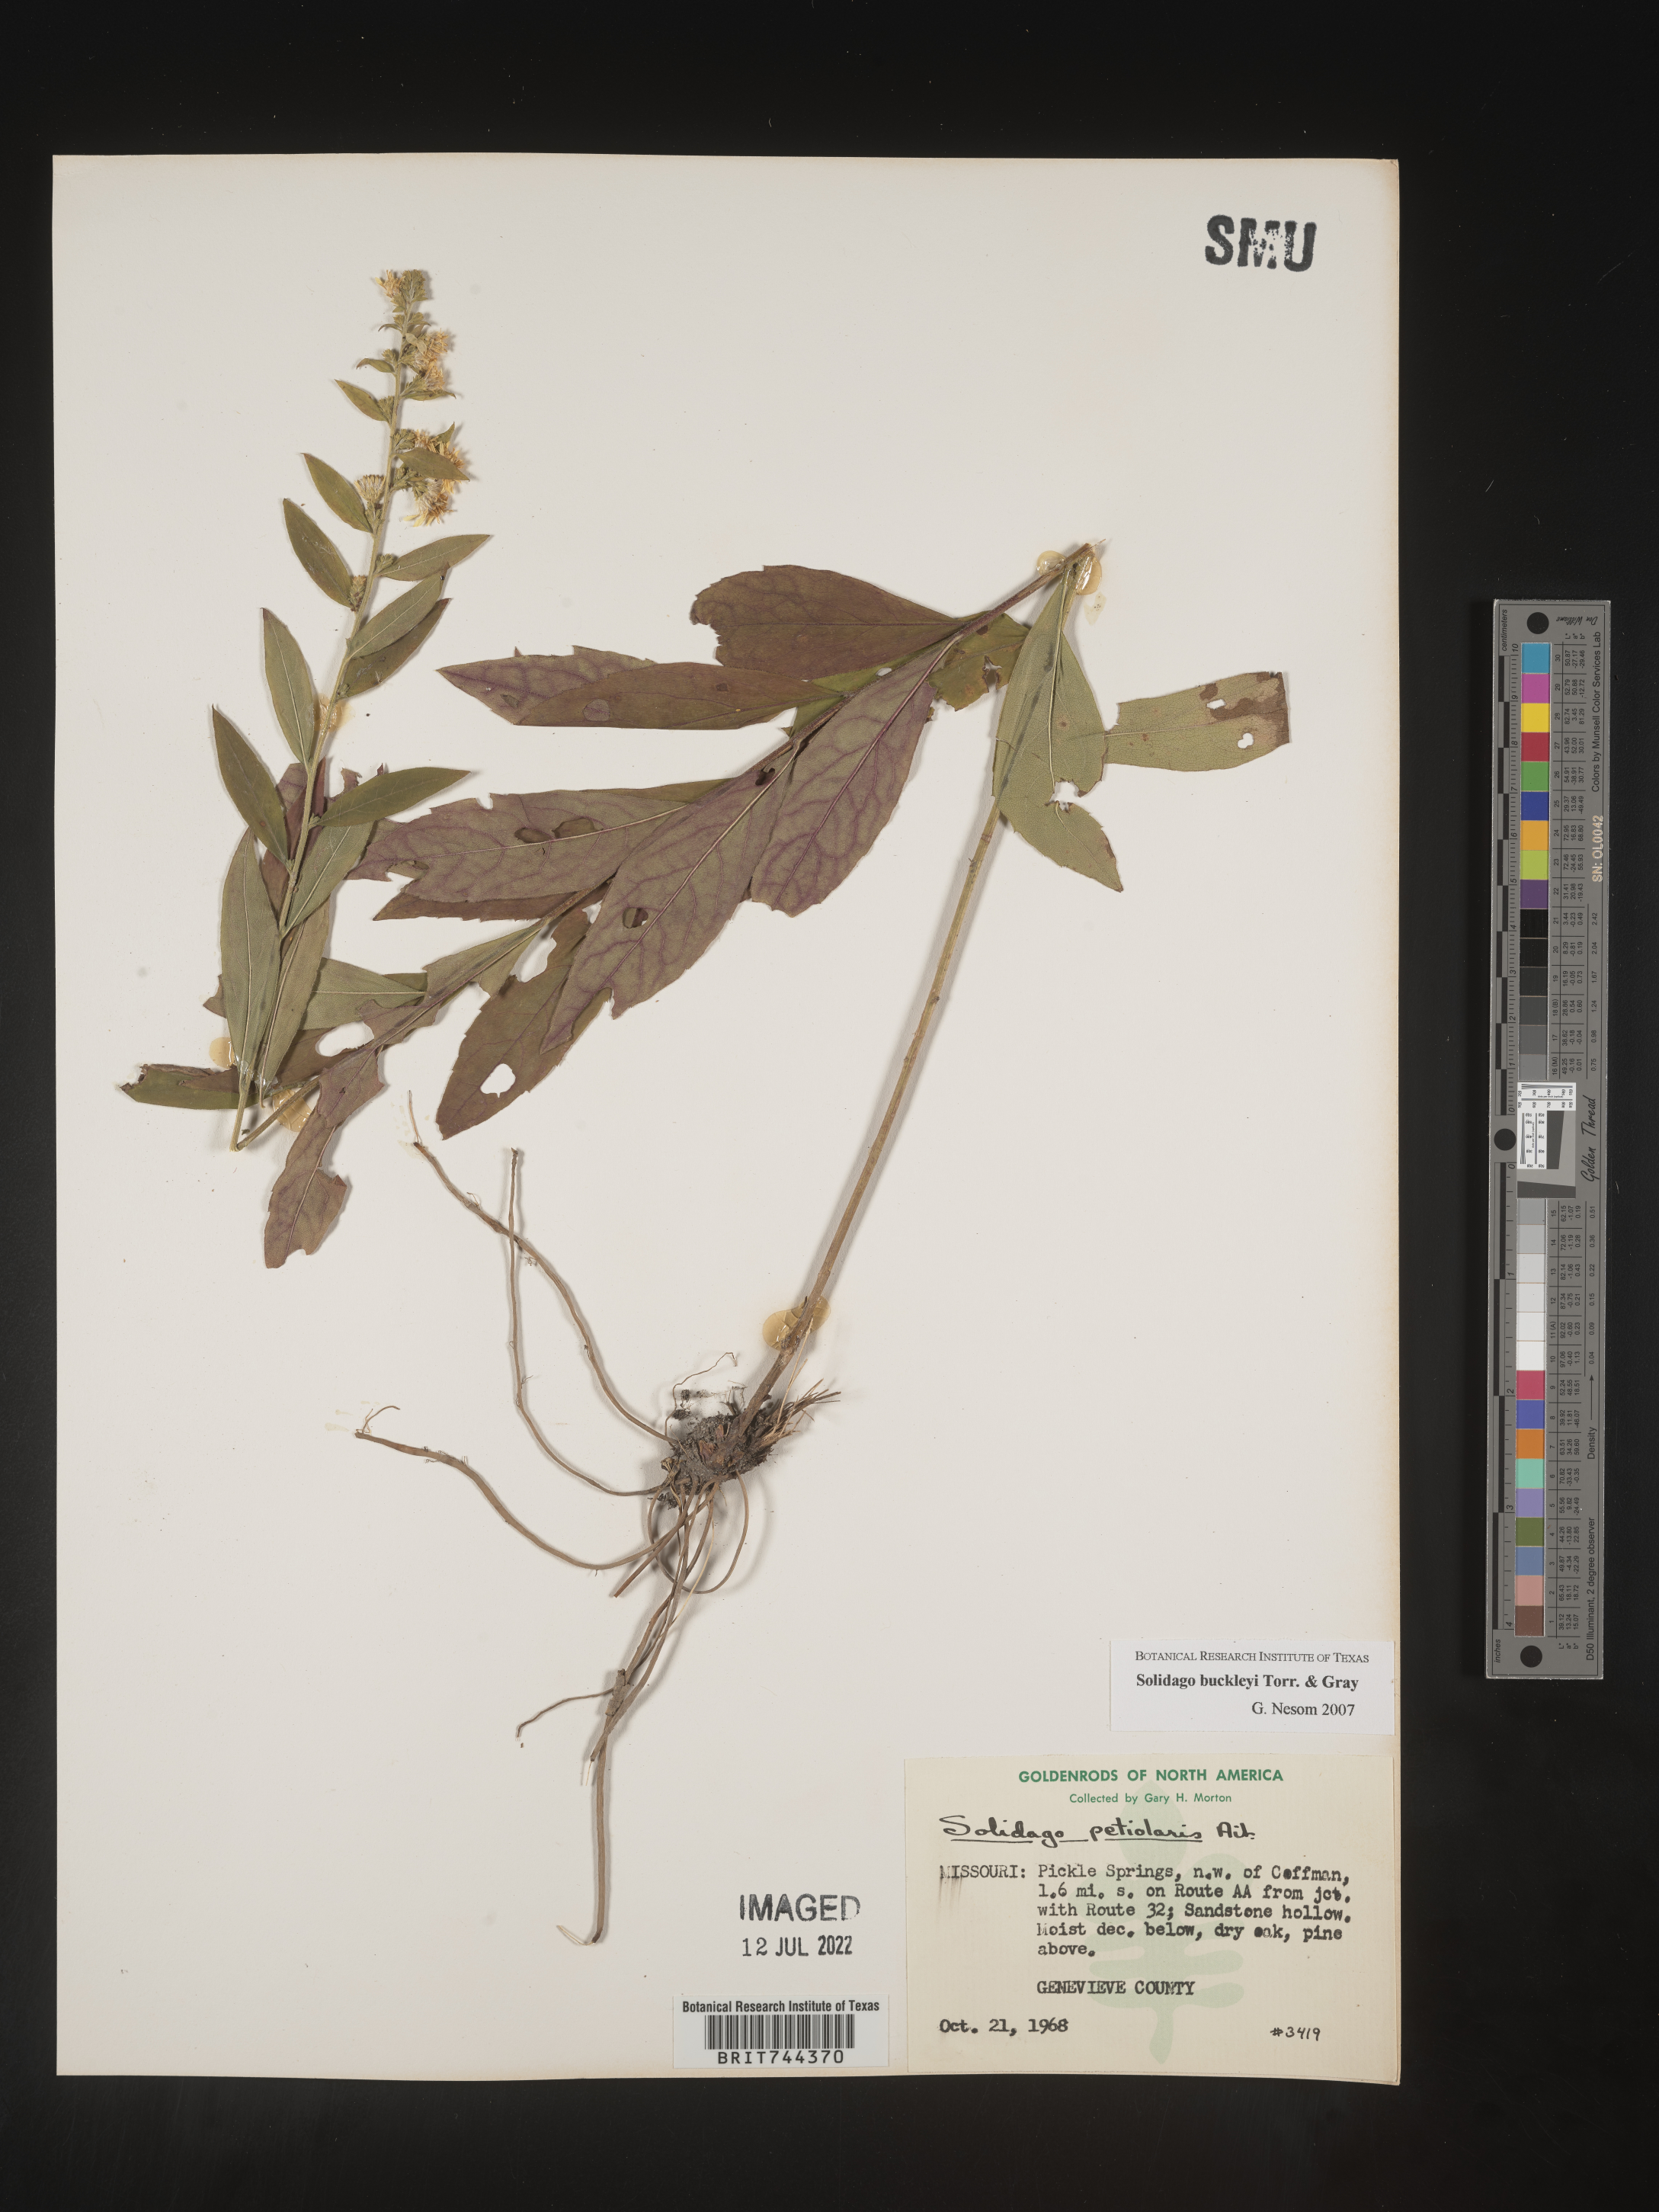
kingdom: Plantae
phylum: Tracheophyta
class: Magnoliopsida
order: Asterales
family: Asteraceae
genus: Solidago
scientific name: Solidago buckleyi
